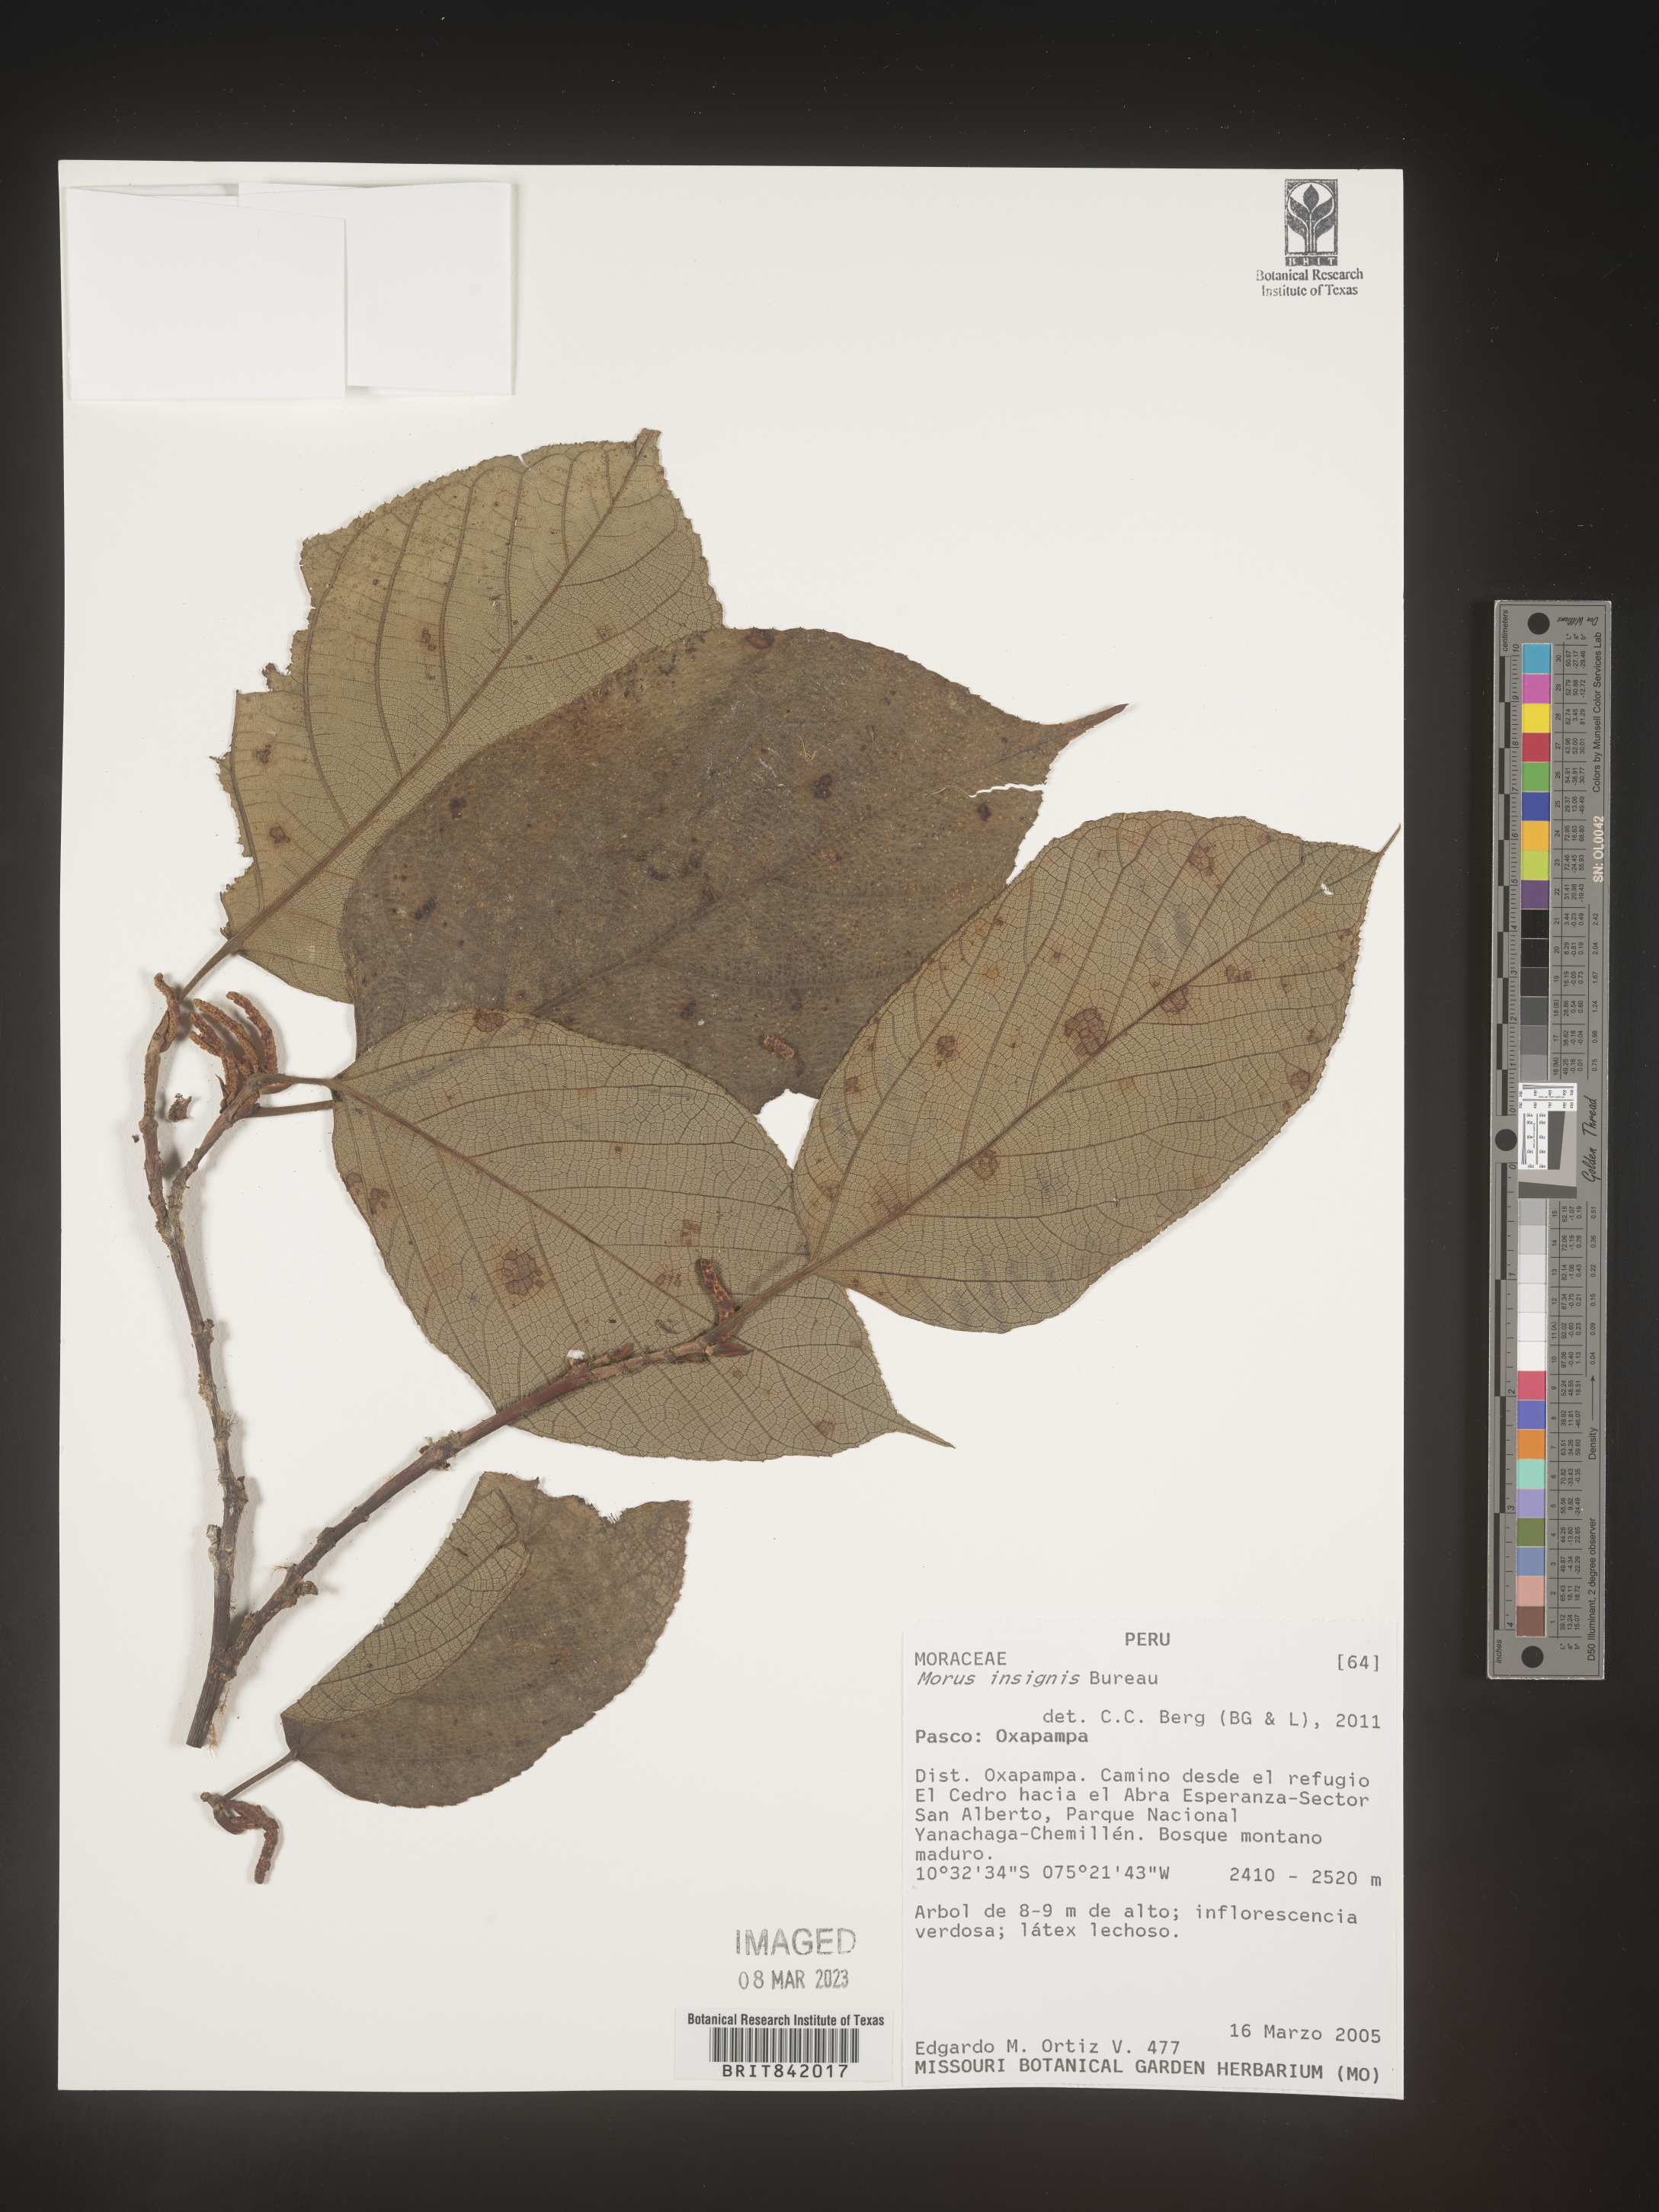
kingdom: Plantae
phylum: Tracheophyta
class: Magnoliopsida
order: Rosales
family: Moraceae
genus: Paratrophis
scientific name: Paratrophis insignis
